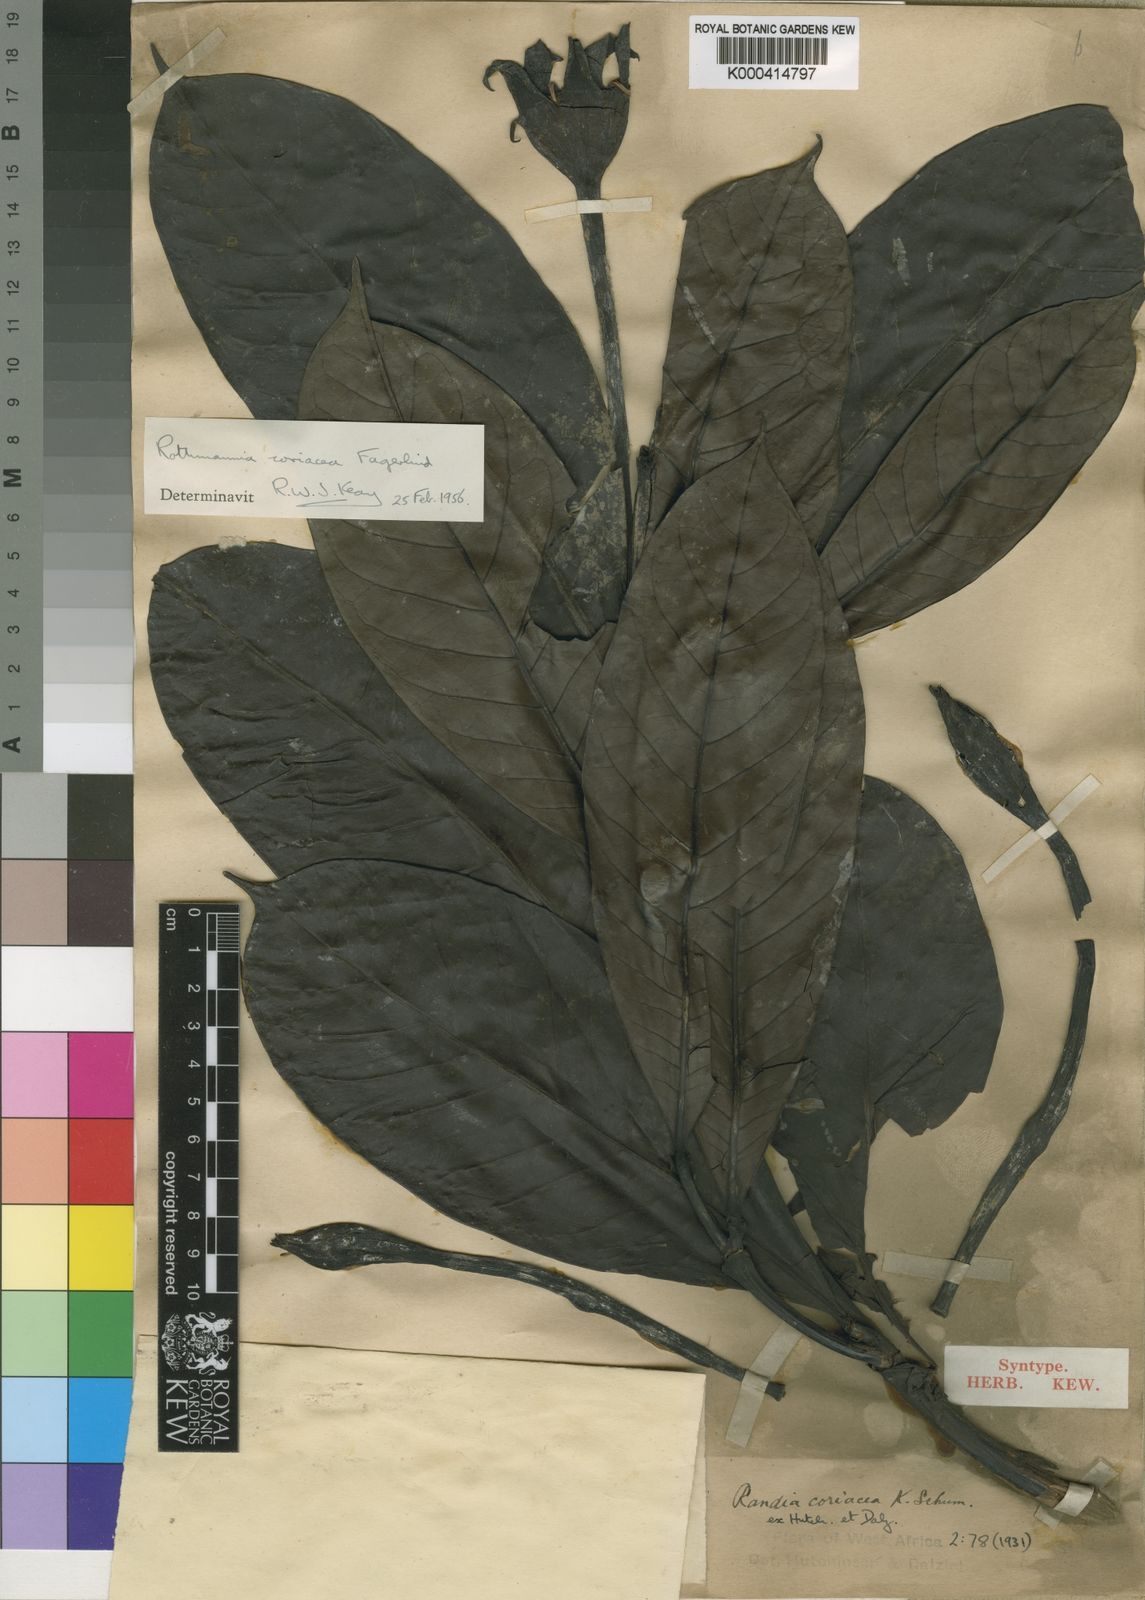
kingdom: Plantae
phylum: Tracheophyta
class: Magnoliopsida
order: Gentianales
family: Rubiaceae
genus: Rothmannia
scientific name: Rothmannia lujae
